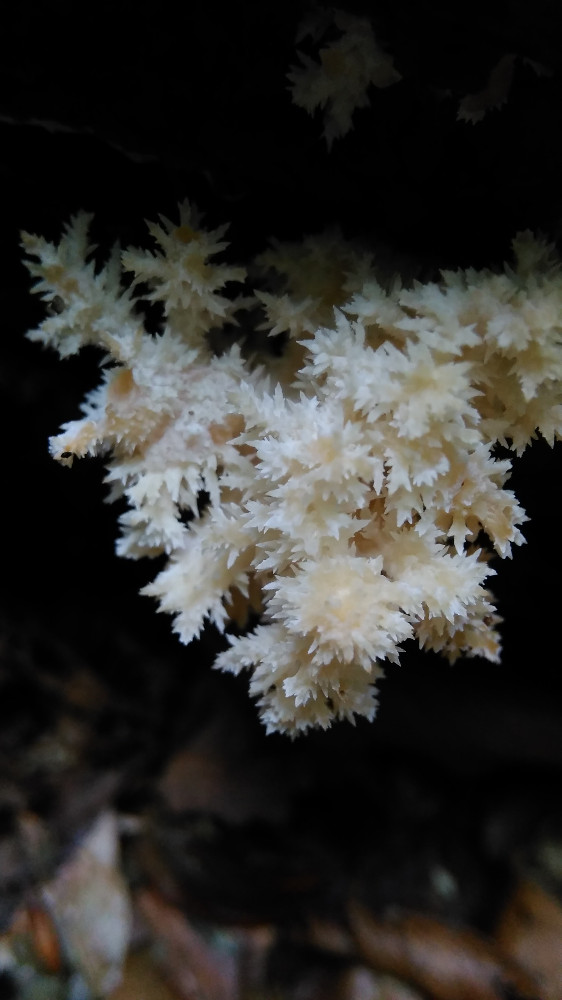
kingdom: Fungi
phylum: Basidiomycota
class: Agaricomycetes
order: Russulales
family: Hericiaceae
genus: Hericium
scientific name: Hericium coralloides
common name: koralpigsvamp
